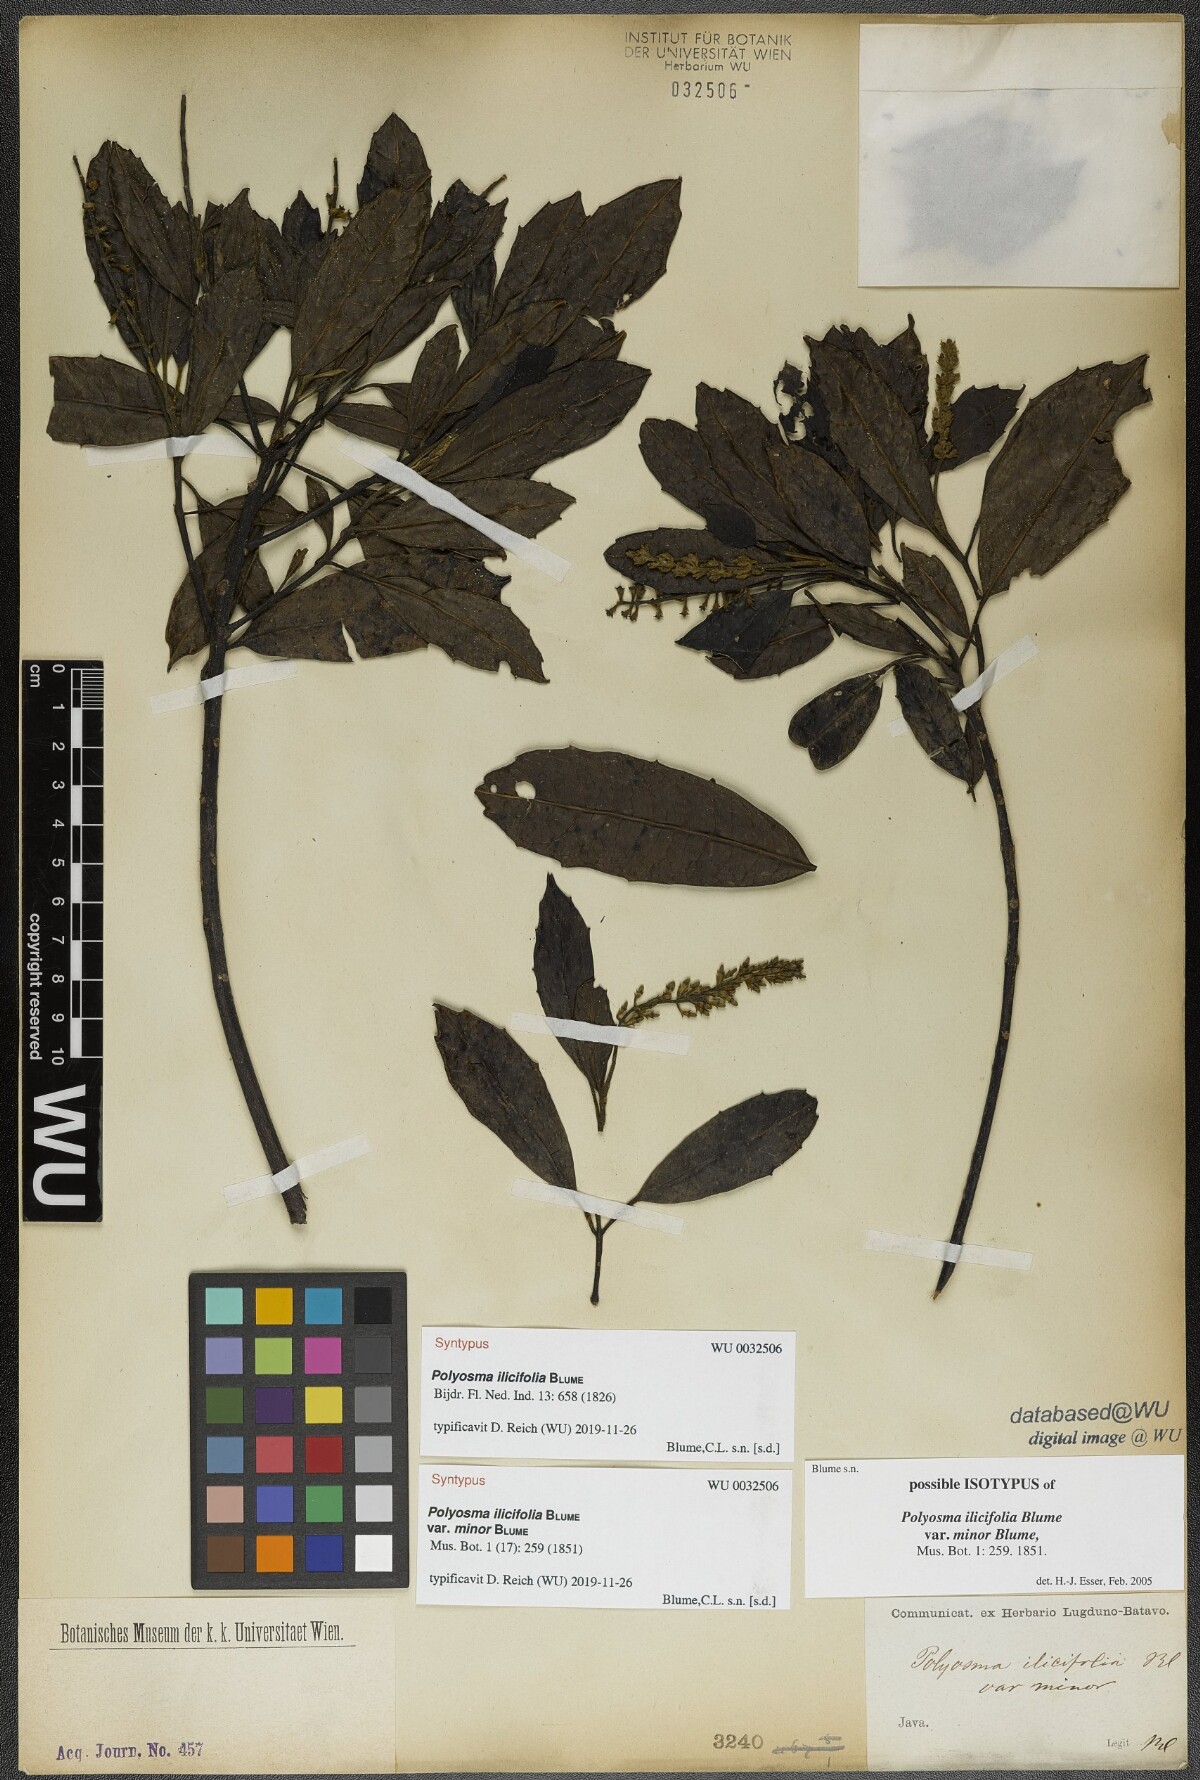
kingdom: Plantae
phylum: Tracheophyta
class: Magnoliopsida
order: Escalloniales
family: Escalloniaceae
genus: Polyosma
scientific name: Polyosma ilicifolia
